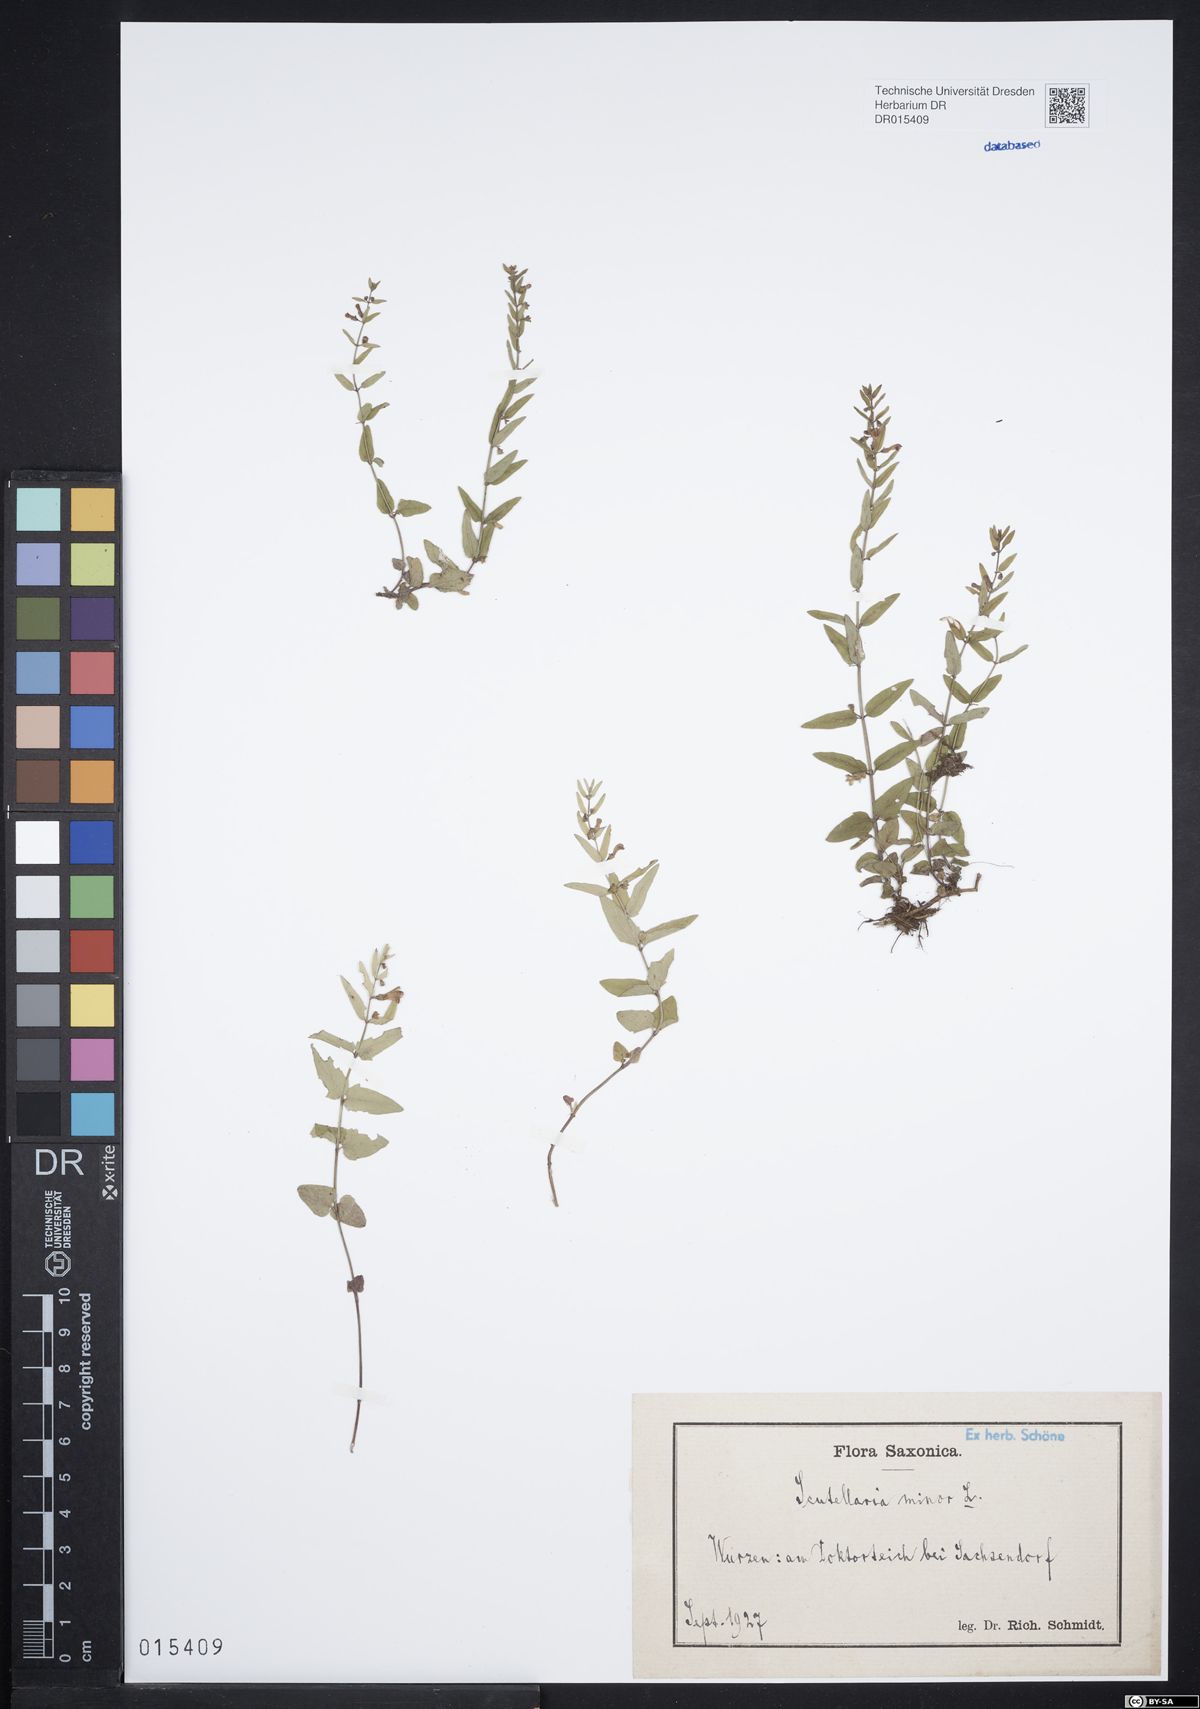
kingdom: Plantae
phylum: Tracheophyta
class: Magnoliopsida
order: Lamiales
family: Lamiaceae
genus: Scutellaria
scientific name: Scutellaria minor
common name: Lesser skullcap
